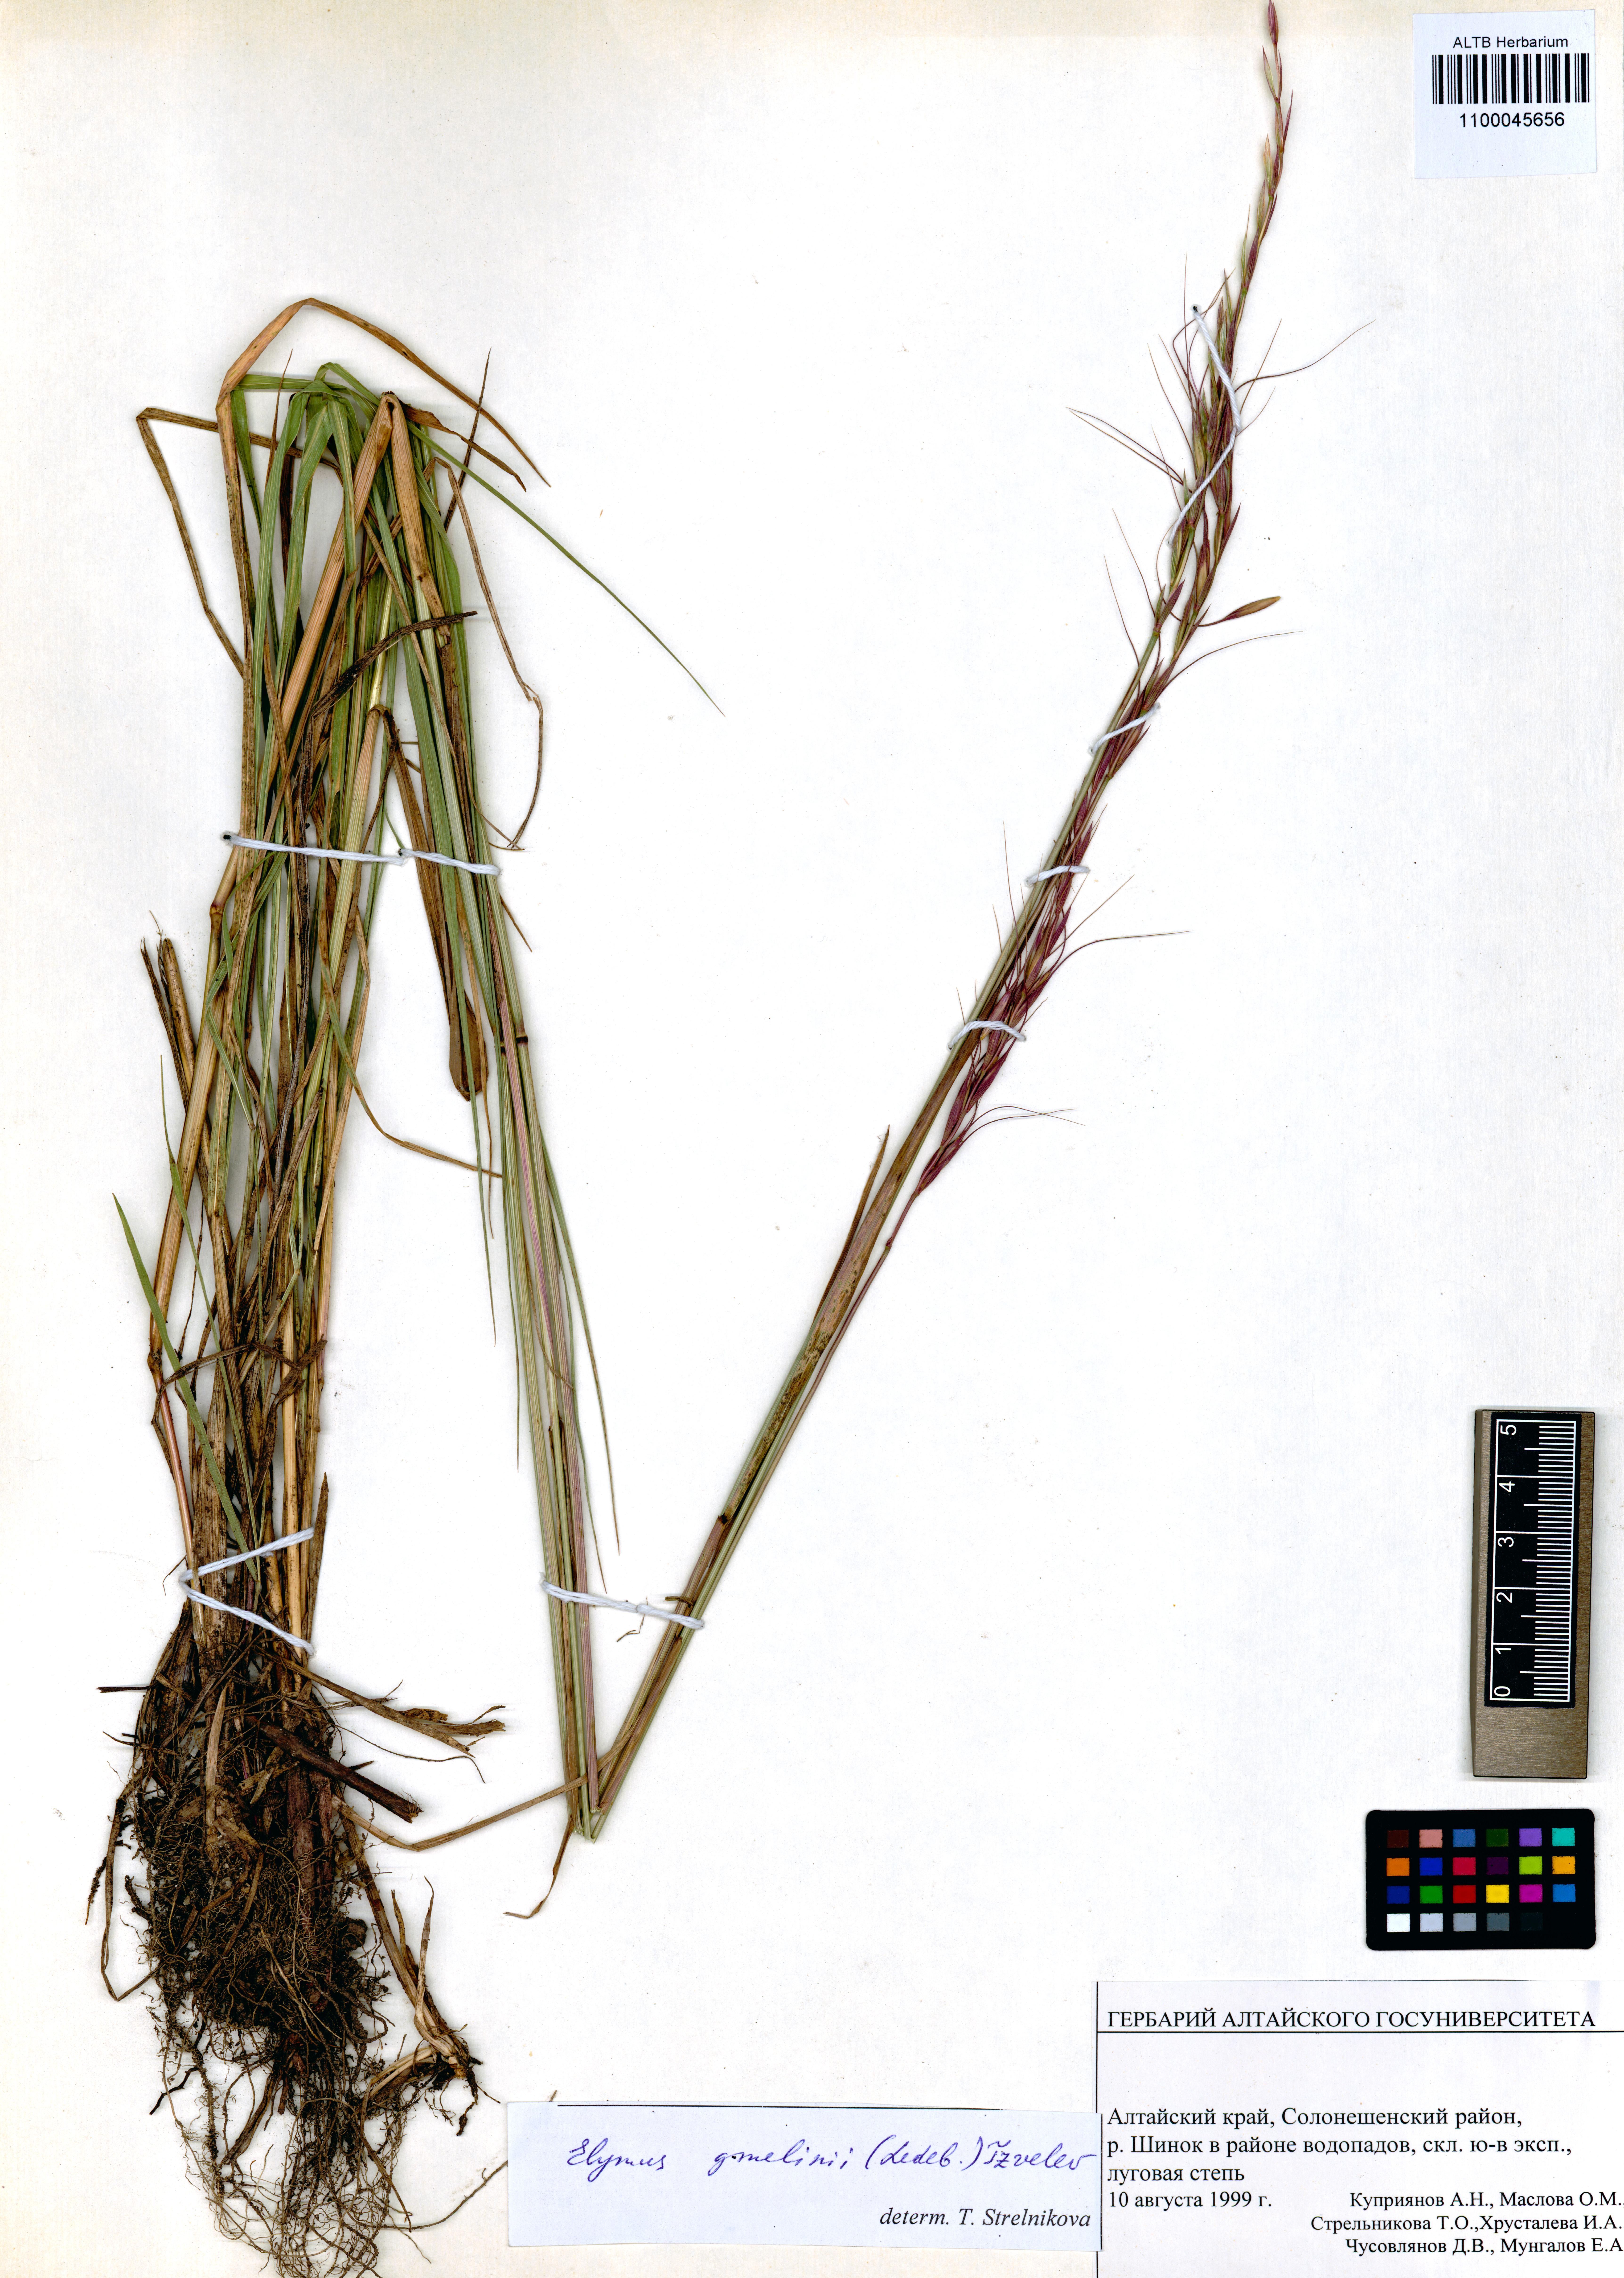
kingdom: Plantae
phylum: Tracheophyta
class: Liliopsida
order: Poales
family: Poaceae
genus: Elymus
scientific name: Elymus gmelinii
